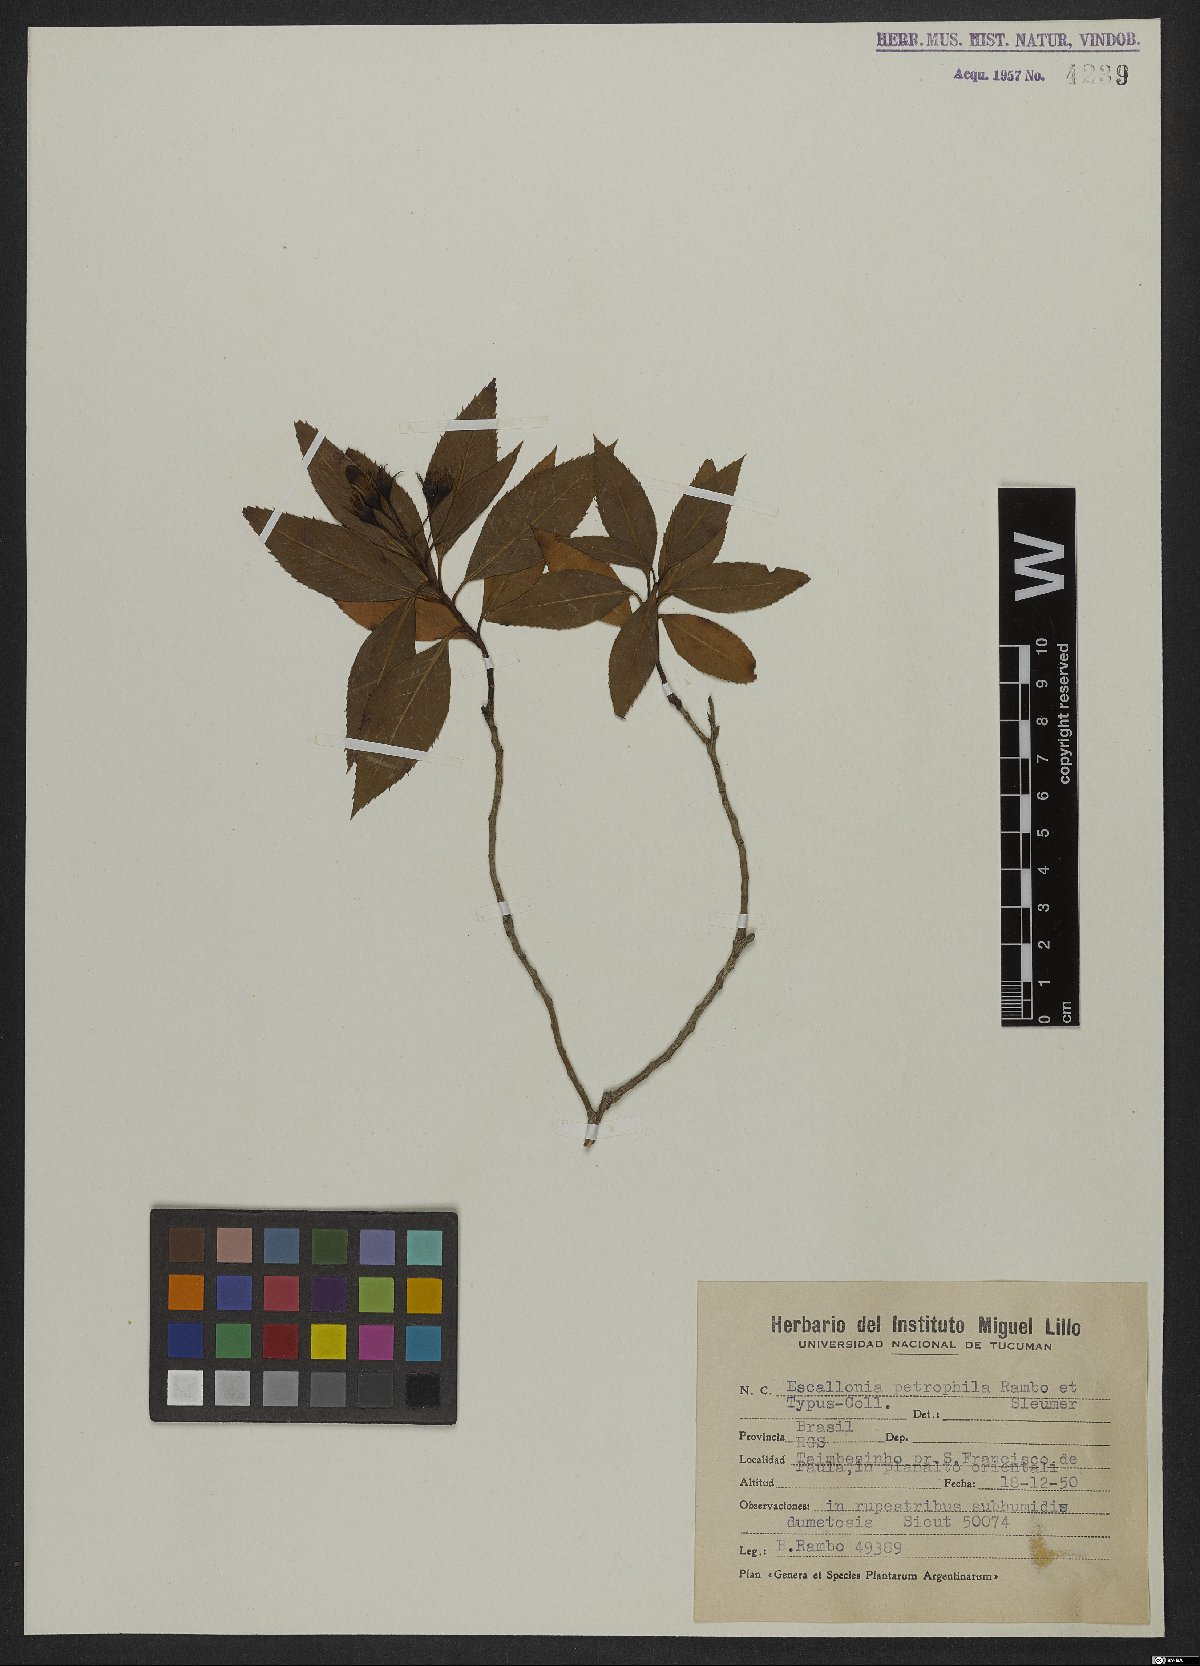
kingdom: Plantae
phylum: Tracheophyta
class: Magnoliopsida
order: Escalloniales
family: Escalloniaceae
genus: Escallonia
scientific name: Escallonia petrophila
